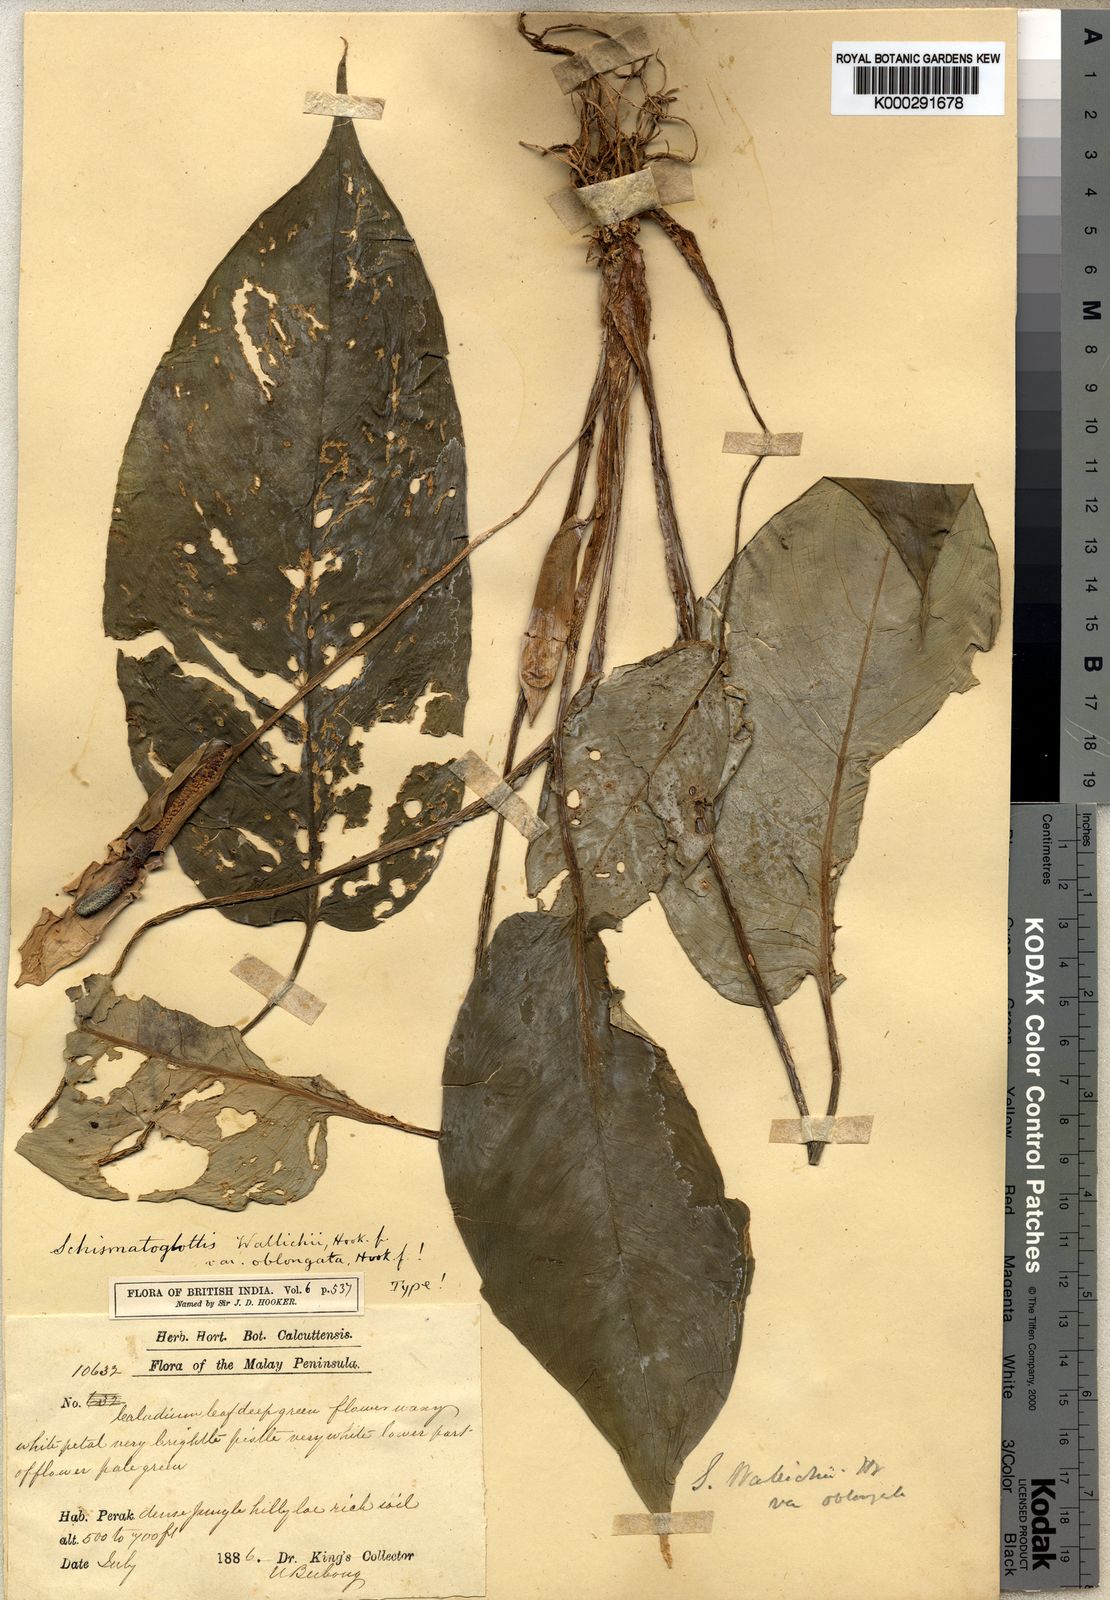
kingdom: Plantae
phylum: Tracheophyta
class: Liliopsida
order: Alismatales
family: Araceae
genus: Schismatoglottis
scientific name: Schismatoglottis lowiae
